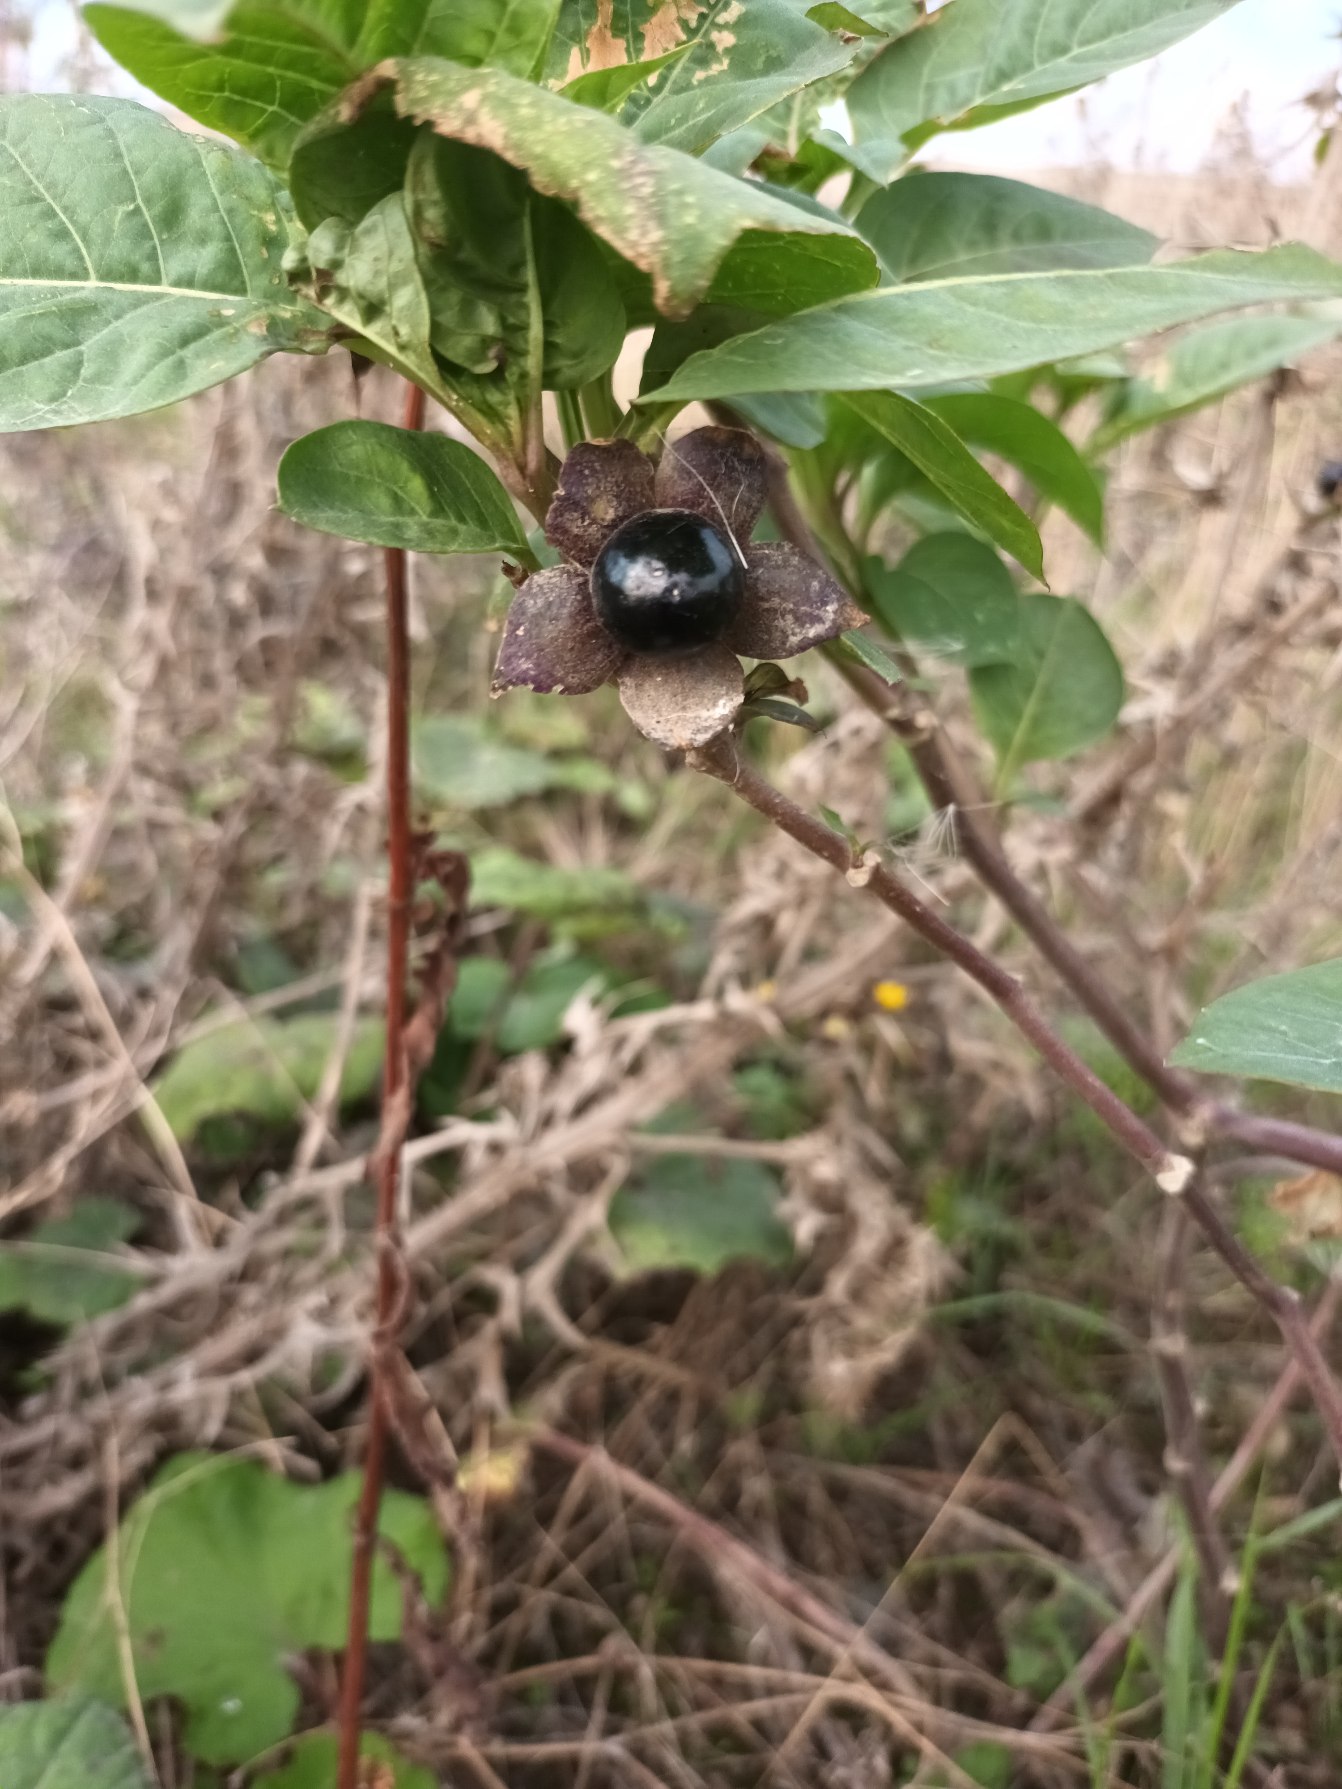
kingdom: Plantae
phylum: Tracheophyta
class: Magnoliopsida
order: Solanales
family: Solanaceae
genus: Atropa
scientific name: Atropa belladonna
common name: Galnebær
